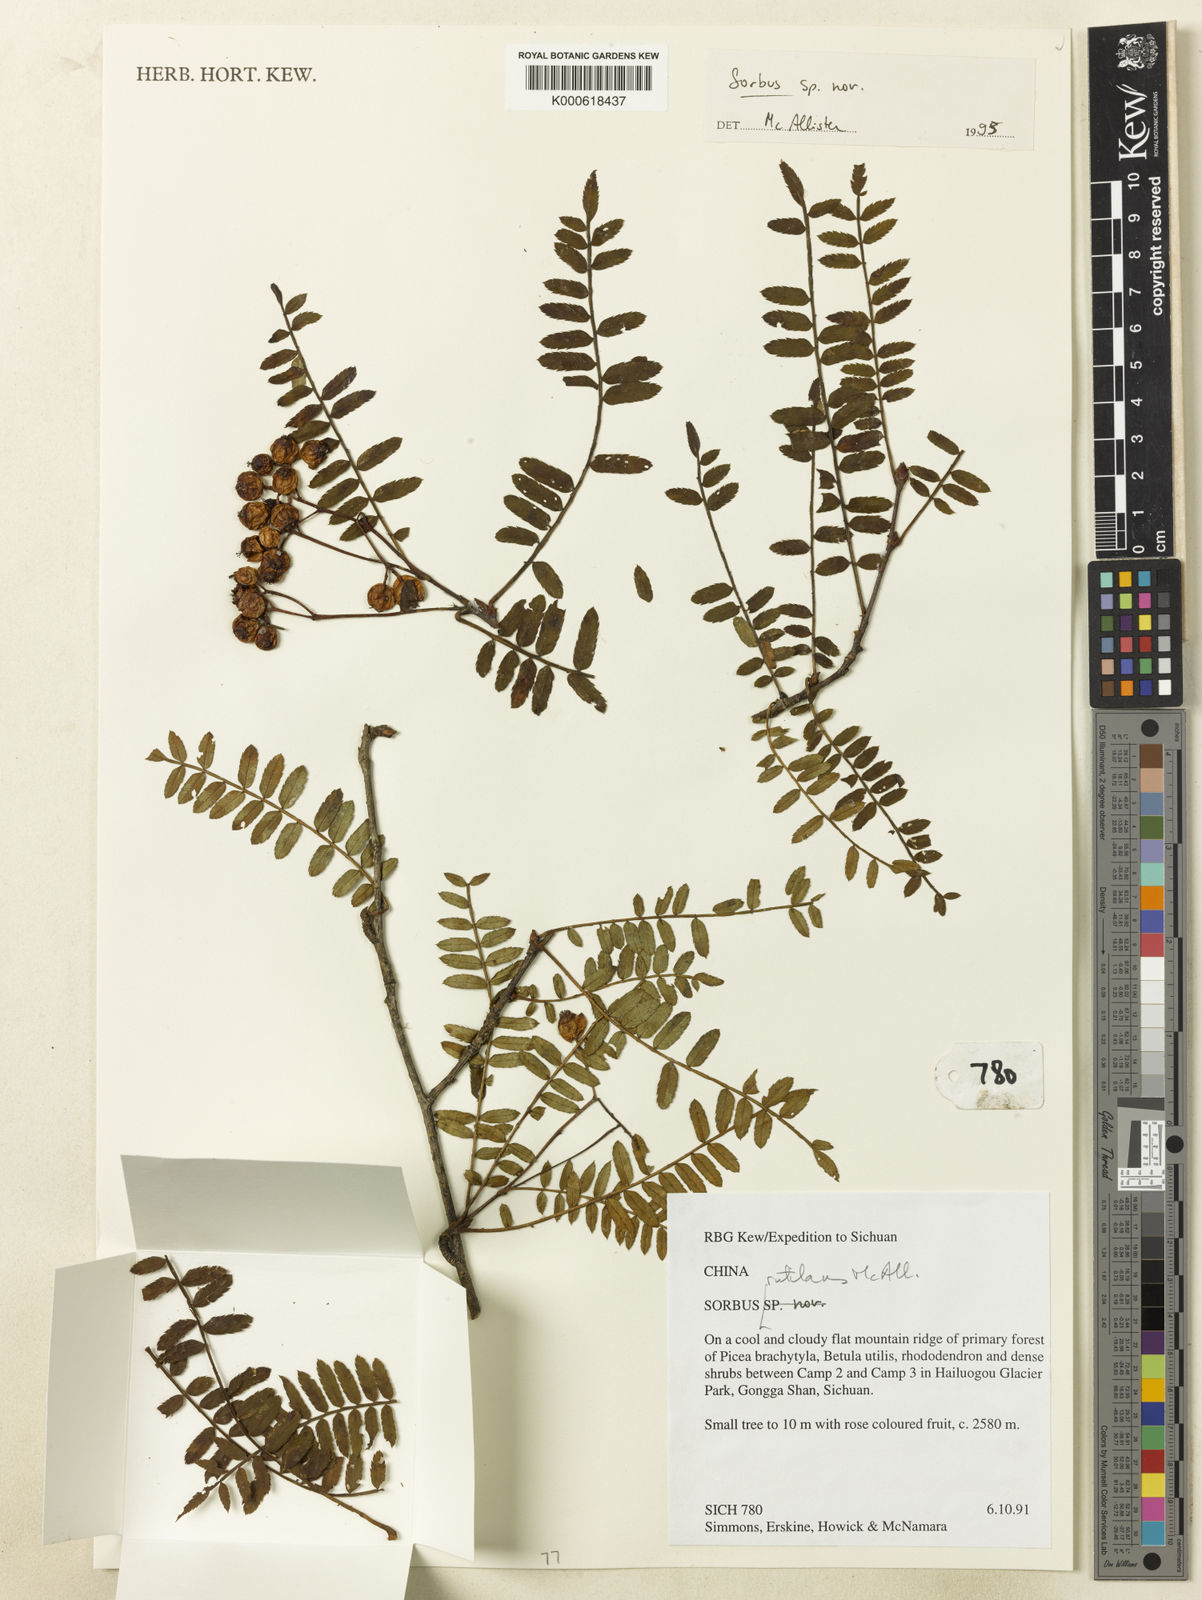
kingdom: Plantae
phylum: Tracheophyta
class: Magnoliopsida
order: Rosales
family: Rosaceae
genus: Sorbus
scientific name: Sorbus rutilans
